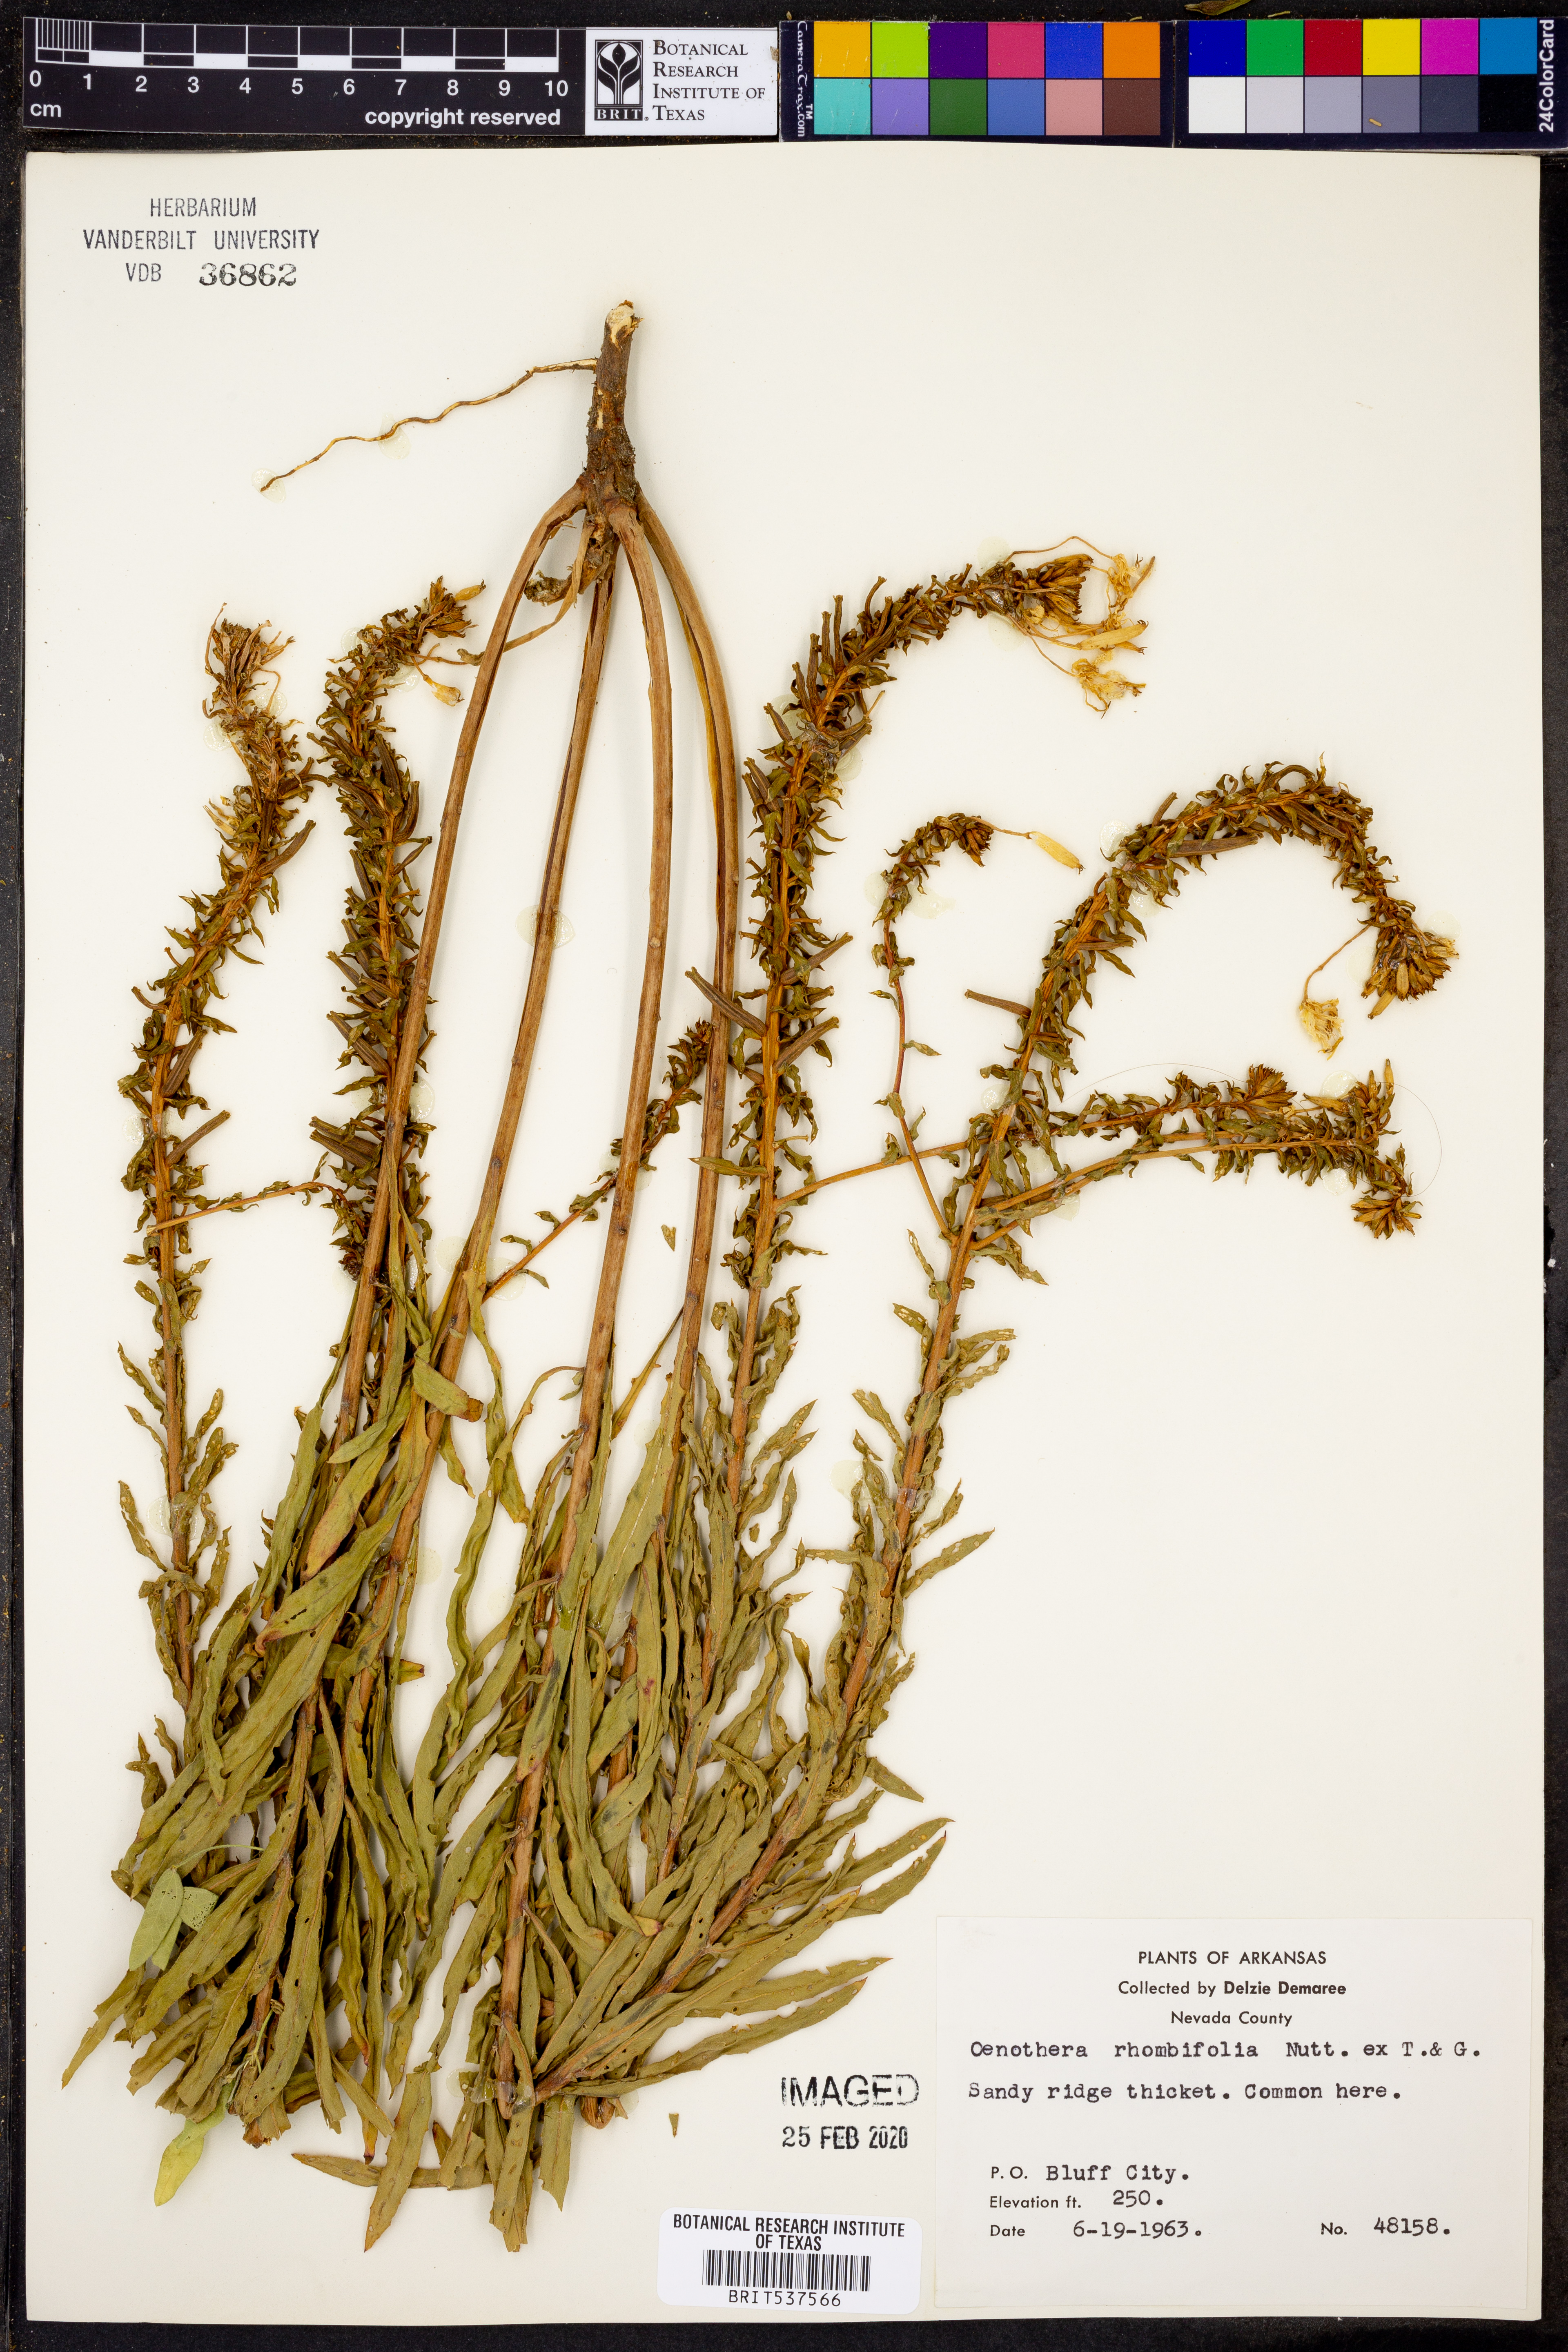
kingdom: Plantae
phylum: Tracheophyta
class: Magnoliopsida
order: Myrtales
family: Onagraceae
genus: Oenothera
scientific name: Oenothera rhombipetala
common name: Four-points evening-primrose
